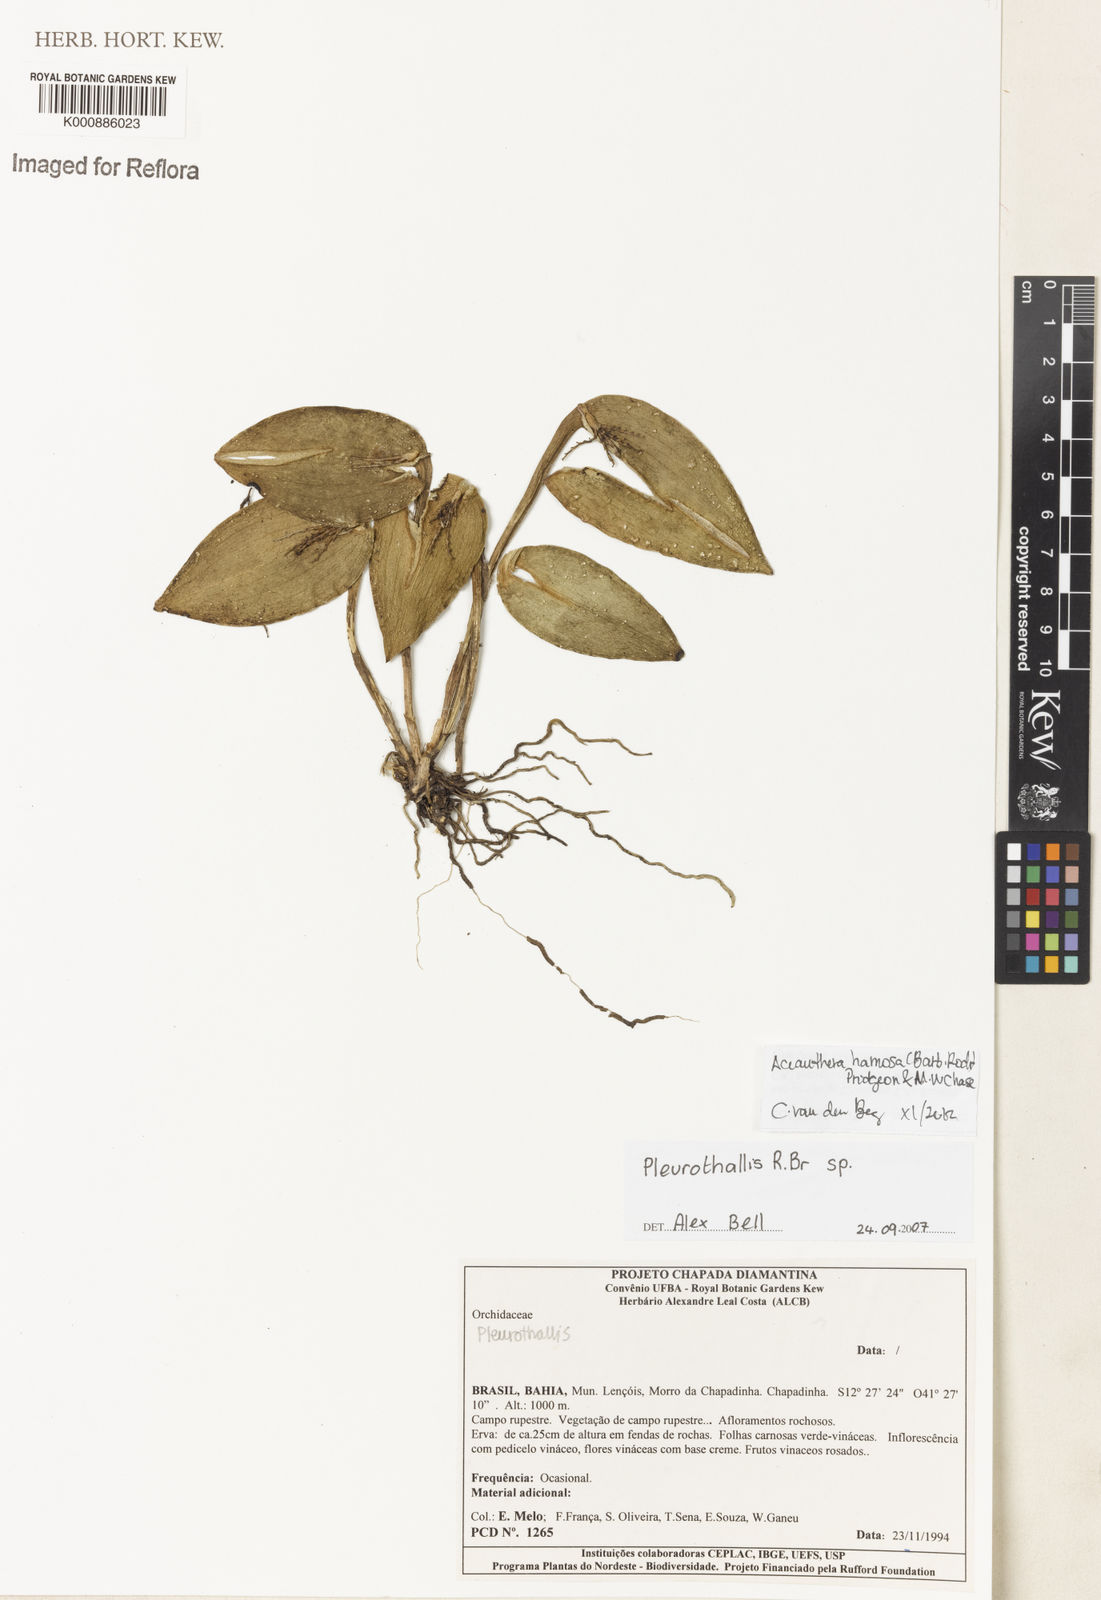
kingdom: Plantae
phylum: Tracheophyta
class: Liliopsida
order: Asparagales
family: Orchidaceae
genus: Acianthera
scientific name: Acianthera prolifera
